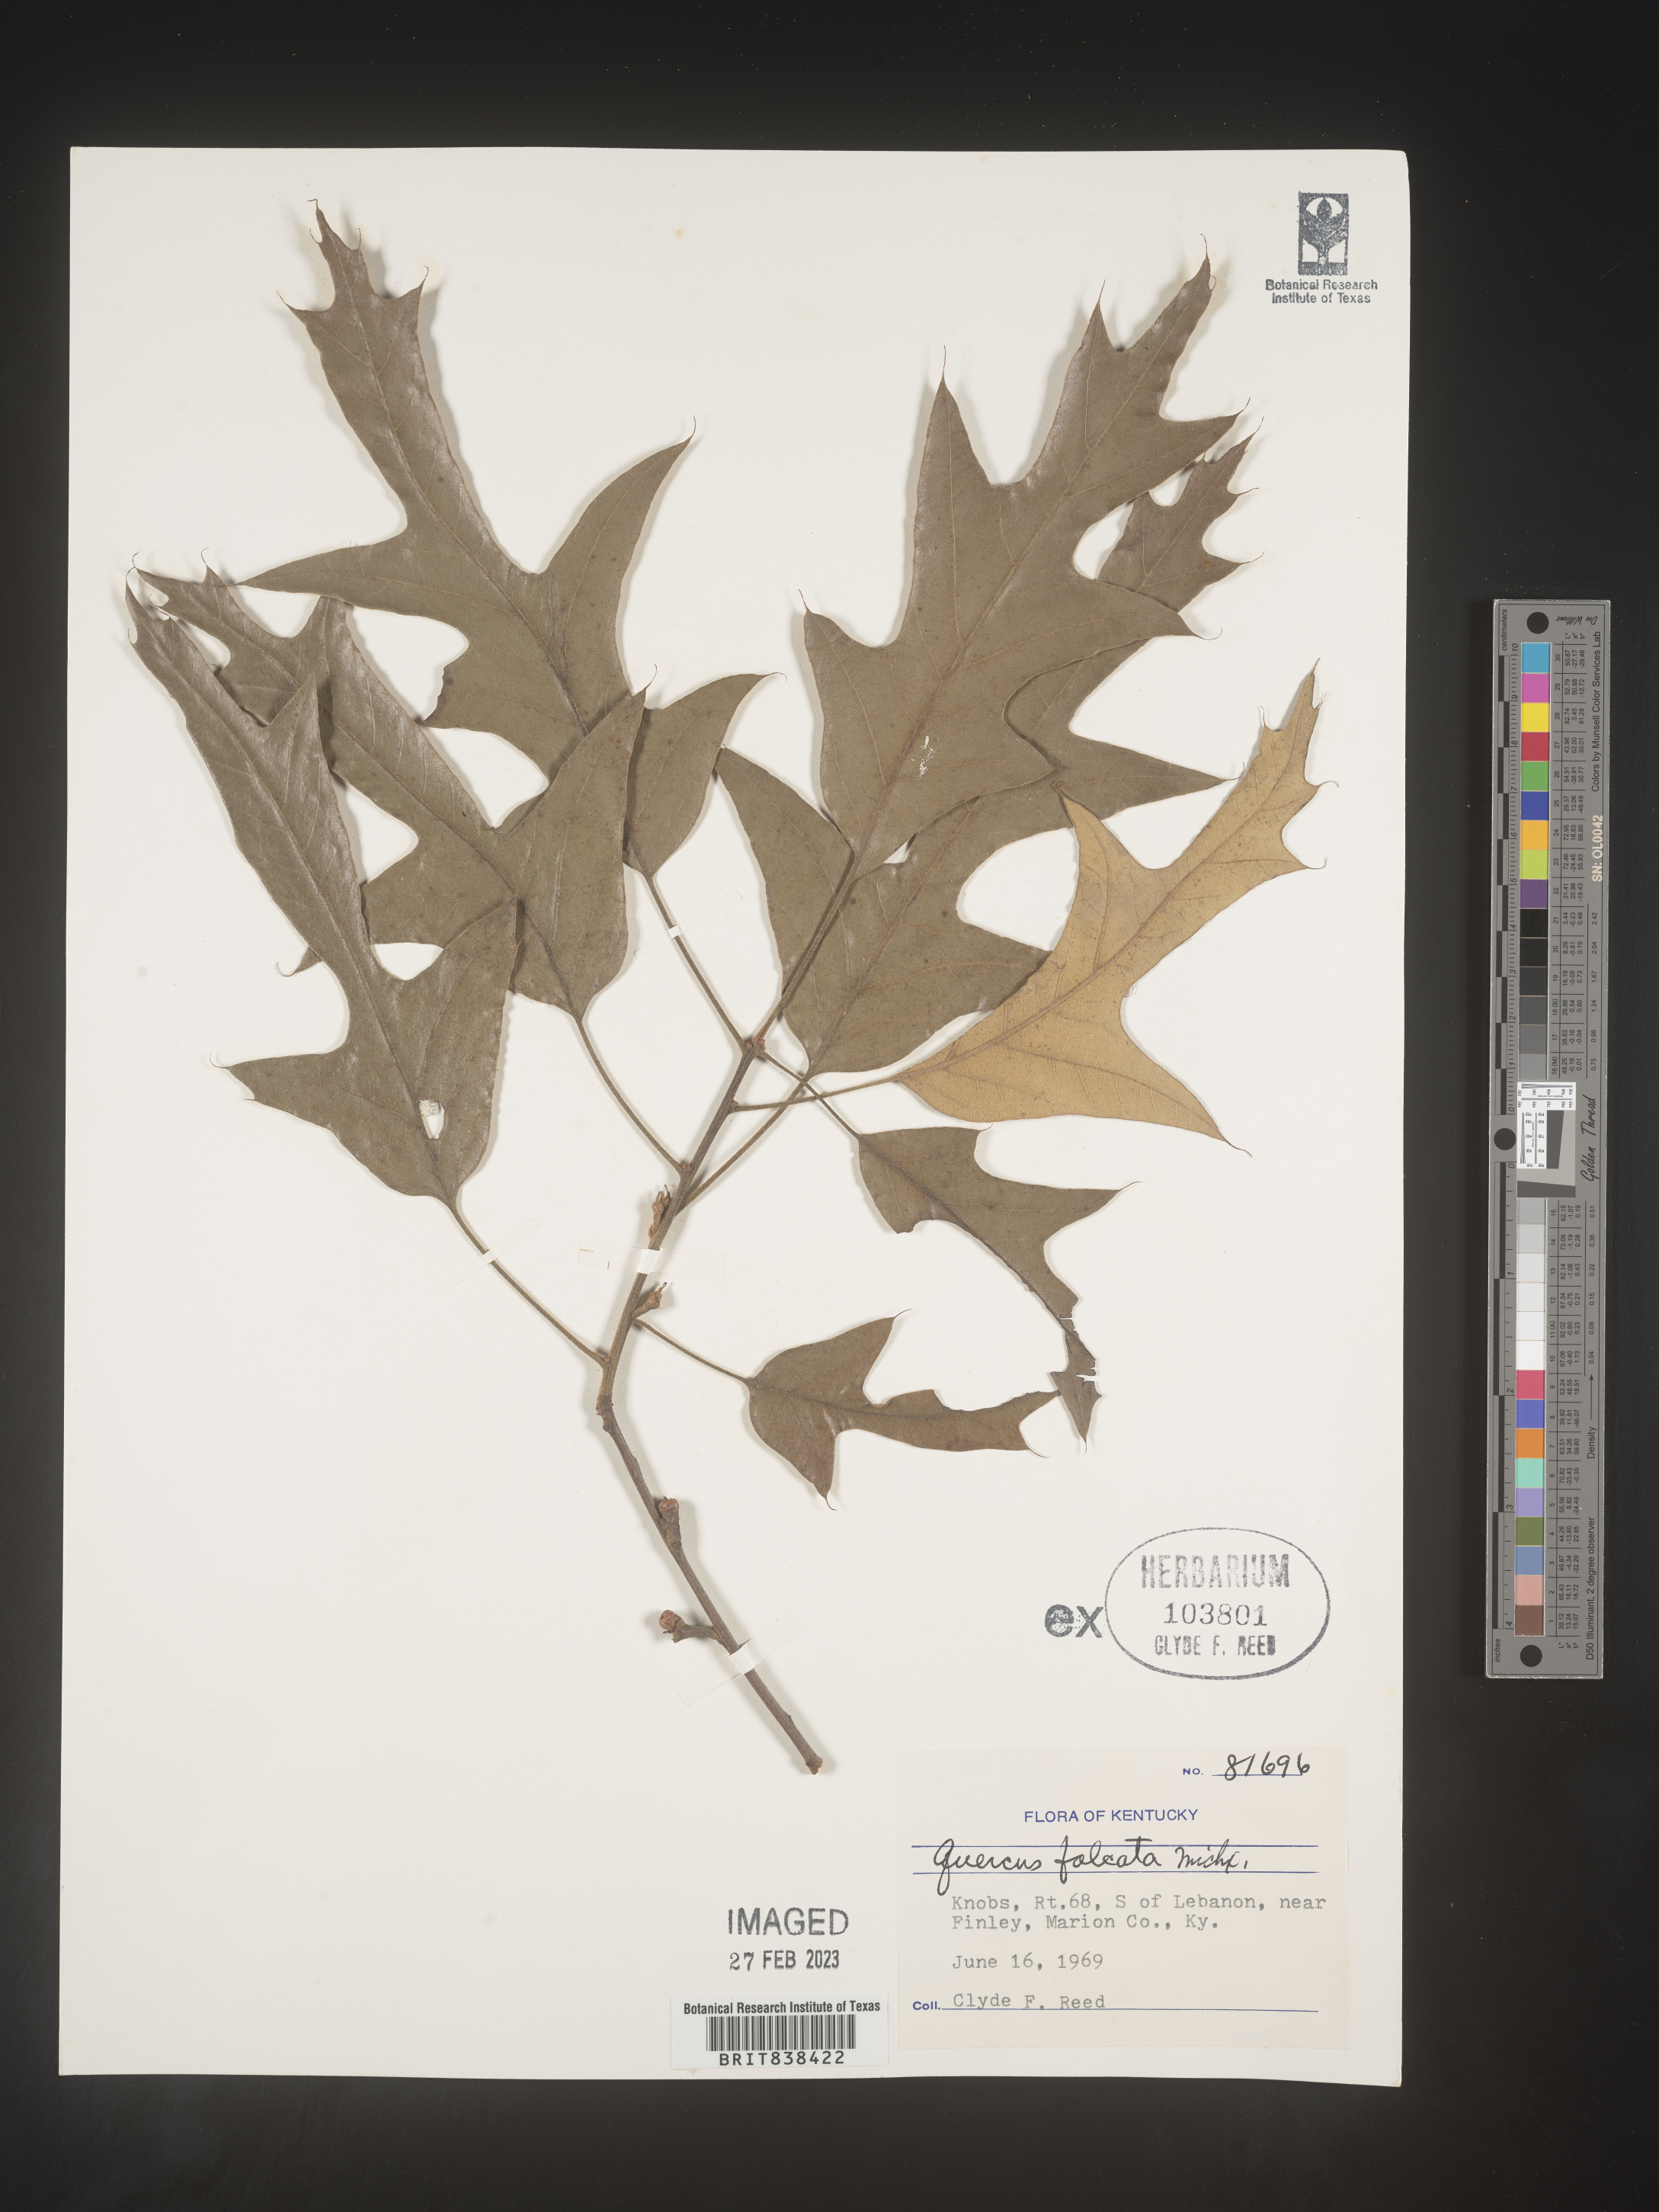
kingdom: Plantae
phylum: Tracheophyta
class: Magnoliopsida
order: Fagales
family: Fagaceae
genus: Quercus
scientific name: Quercus falcata
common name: Southern red oak
